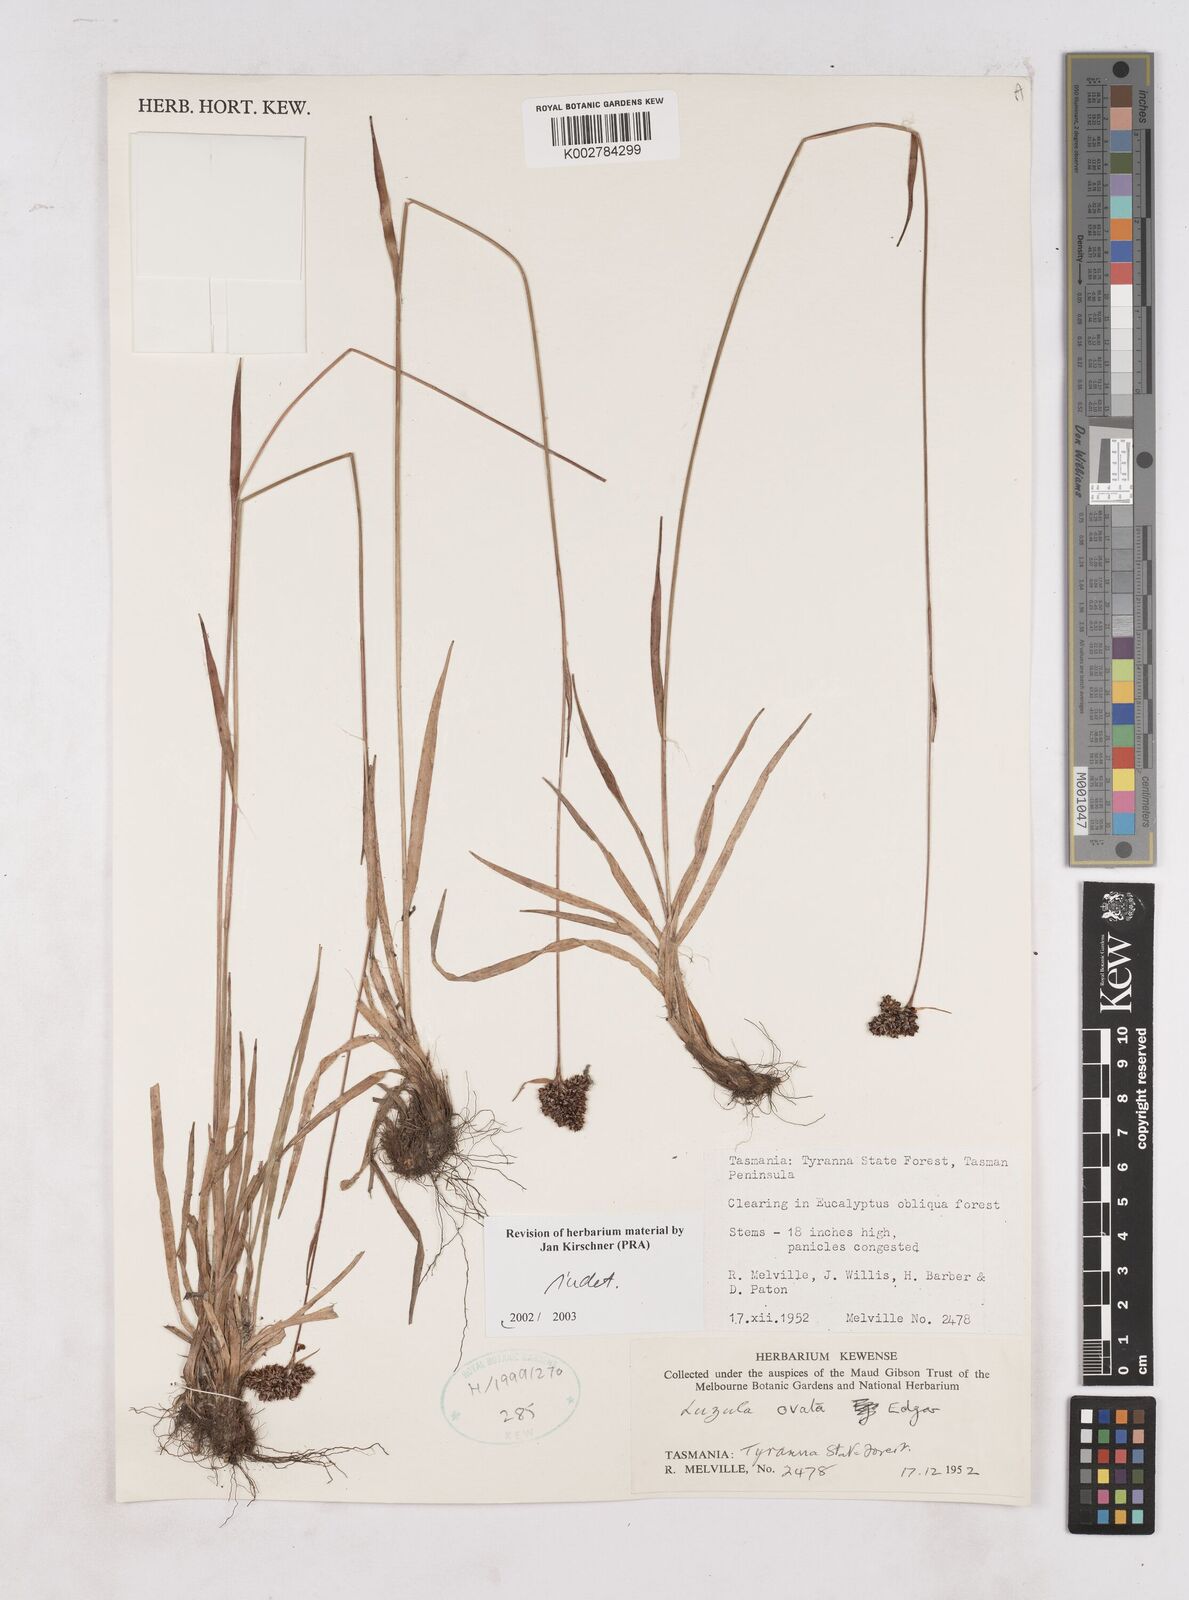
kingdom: Plantae
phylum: Tracheophyta
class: Liliopsida
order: Poales
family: Juncaceae
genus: Luzula
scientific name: Luzula
